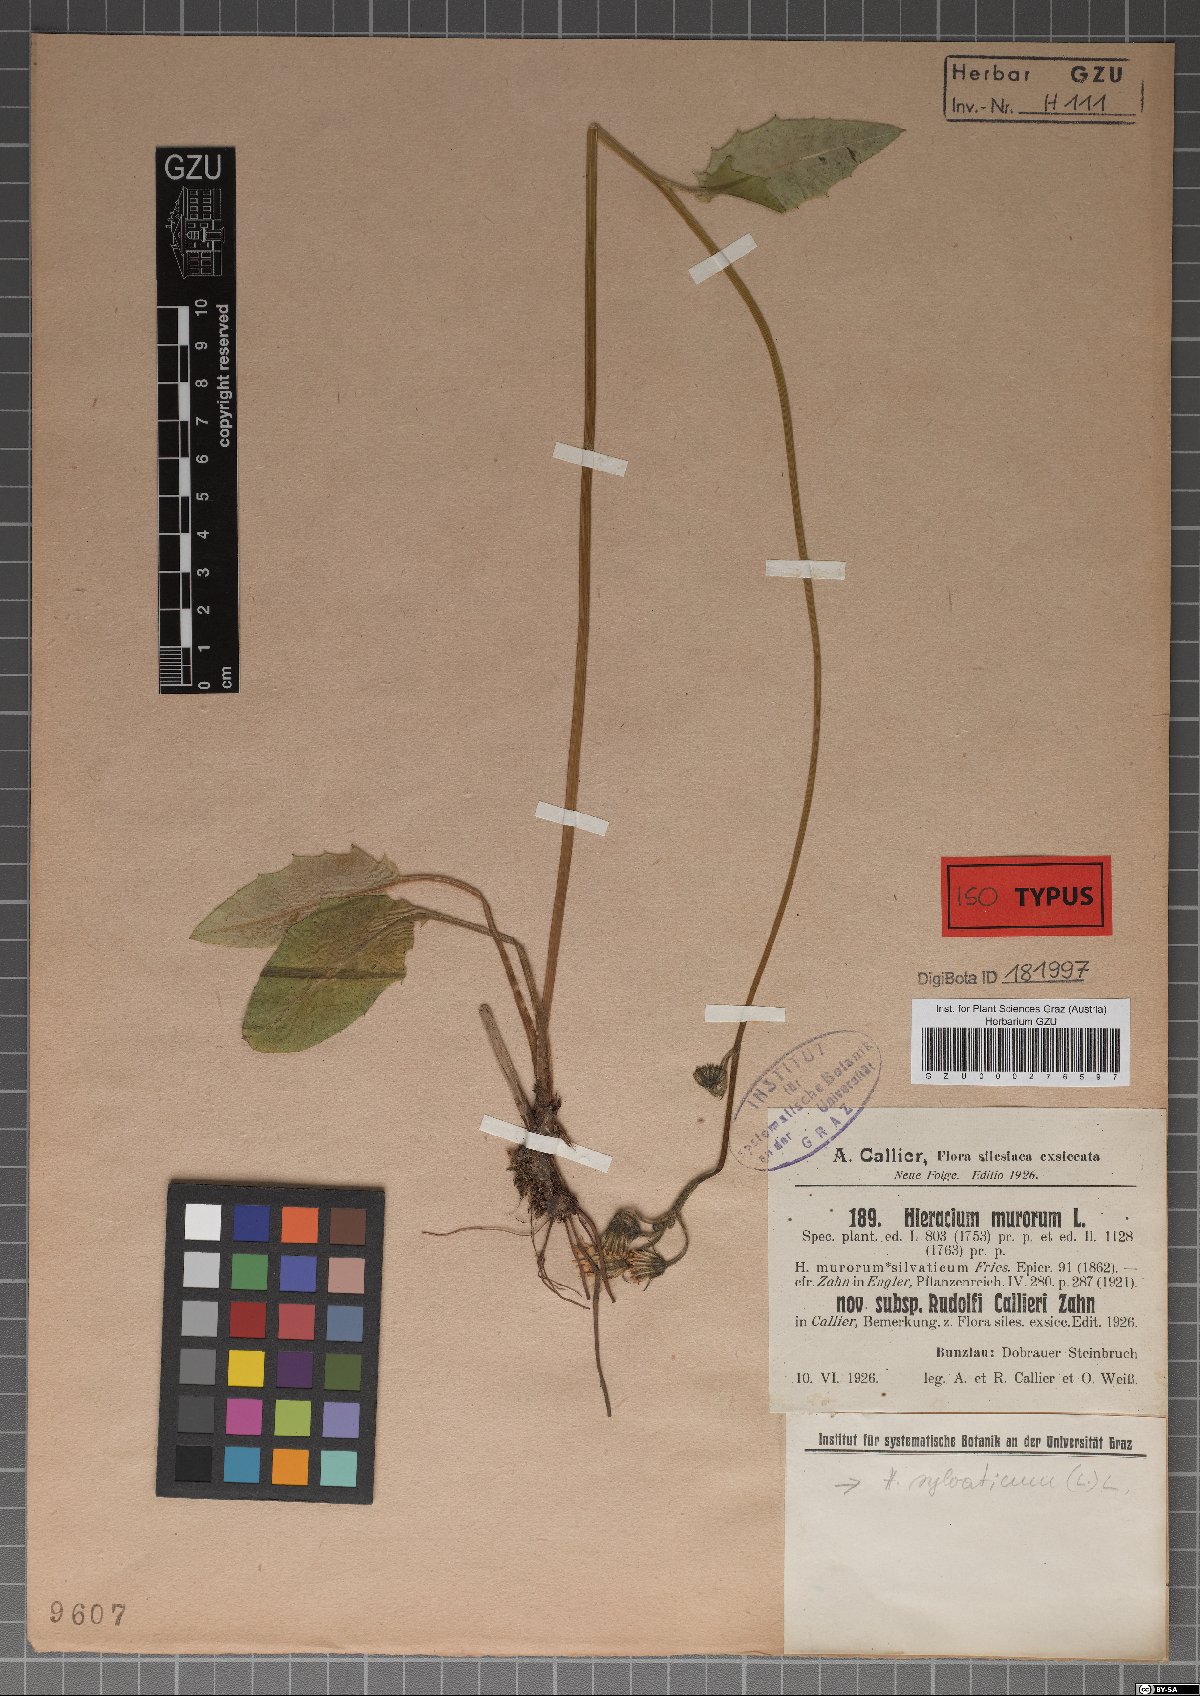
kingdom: Plantae
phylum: Tracheophyta
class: Magnoliopsida
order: Asterales
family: Asteraceae
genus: Hieracium
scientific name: Hieracium murorum
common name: Wall hawkweed
